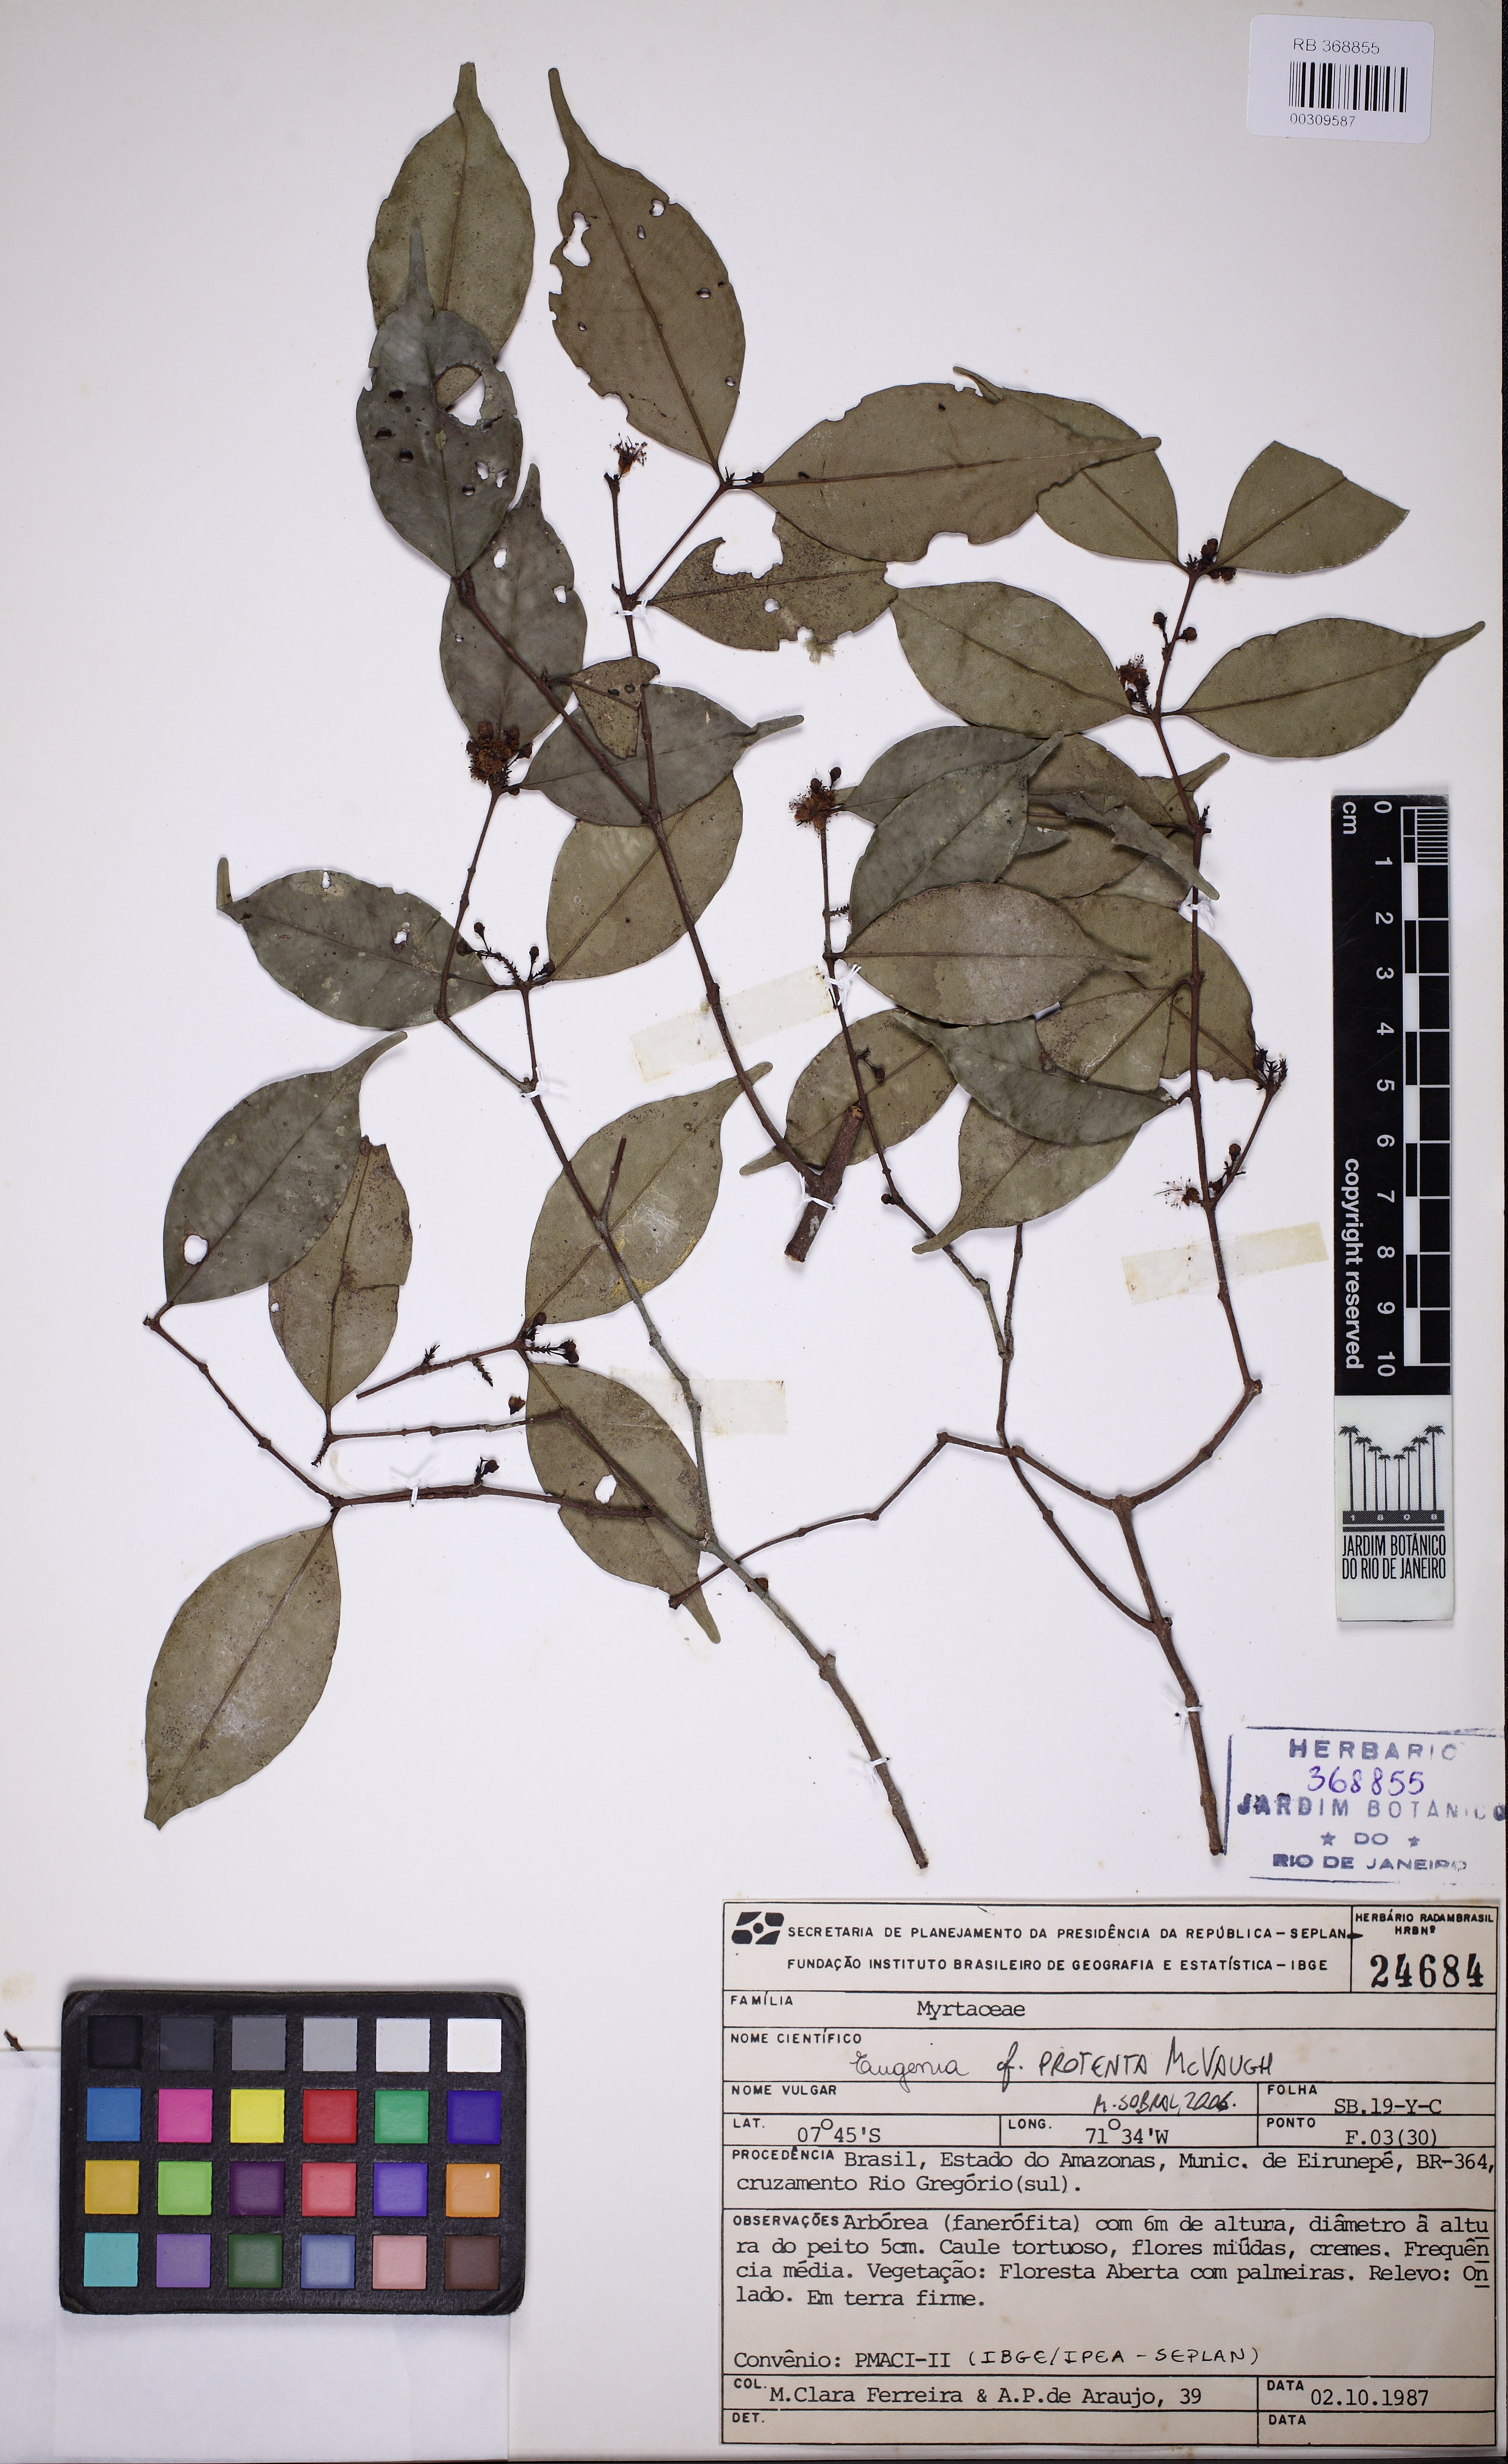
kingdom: Plantae
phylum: Tracheophyta
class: Magnoliopsida
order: Myrtales
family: Myrtaceae
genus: Eugenia
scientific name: Eugenia protenta
